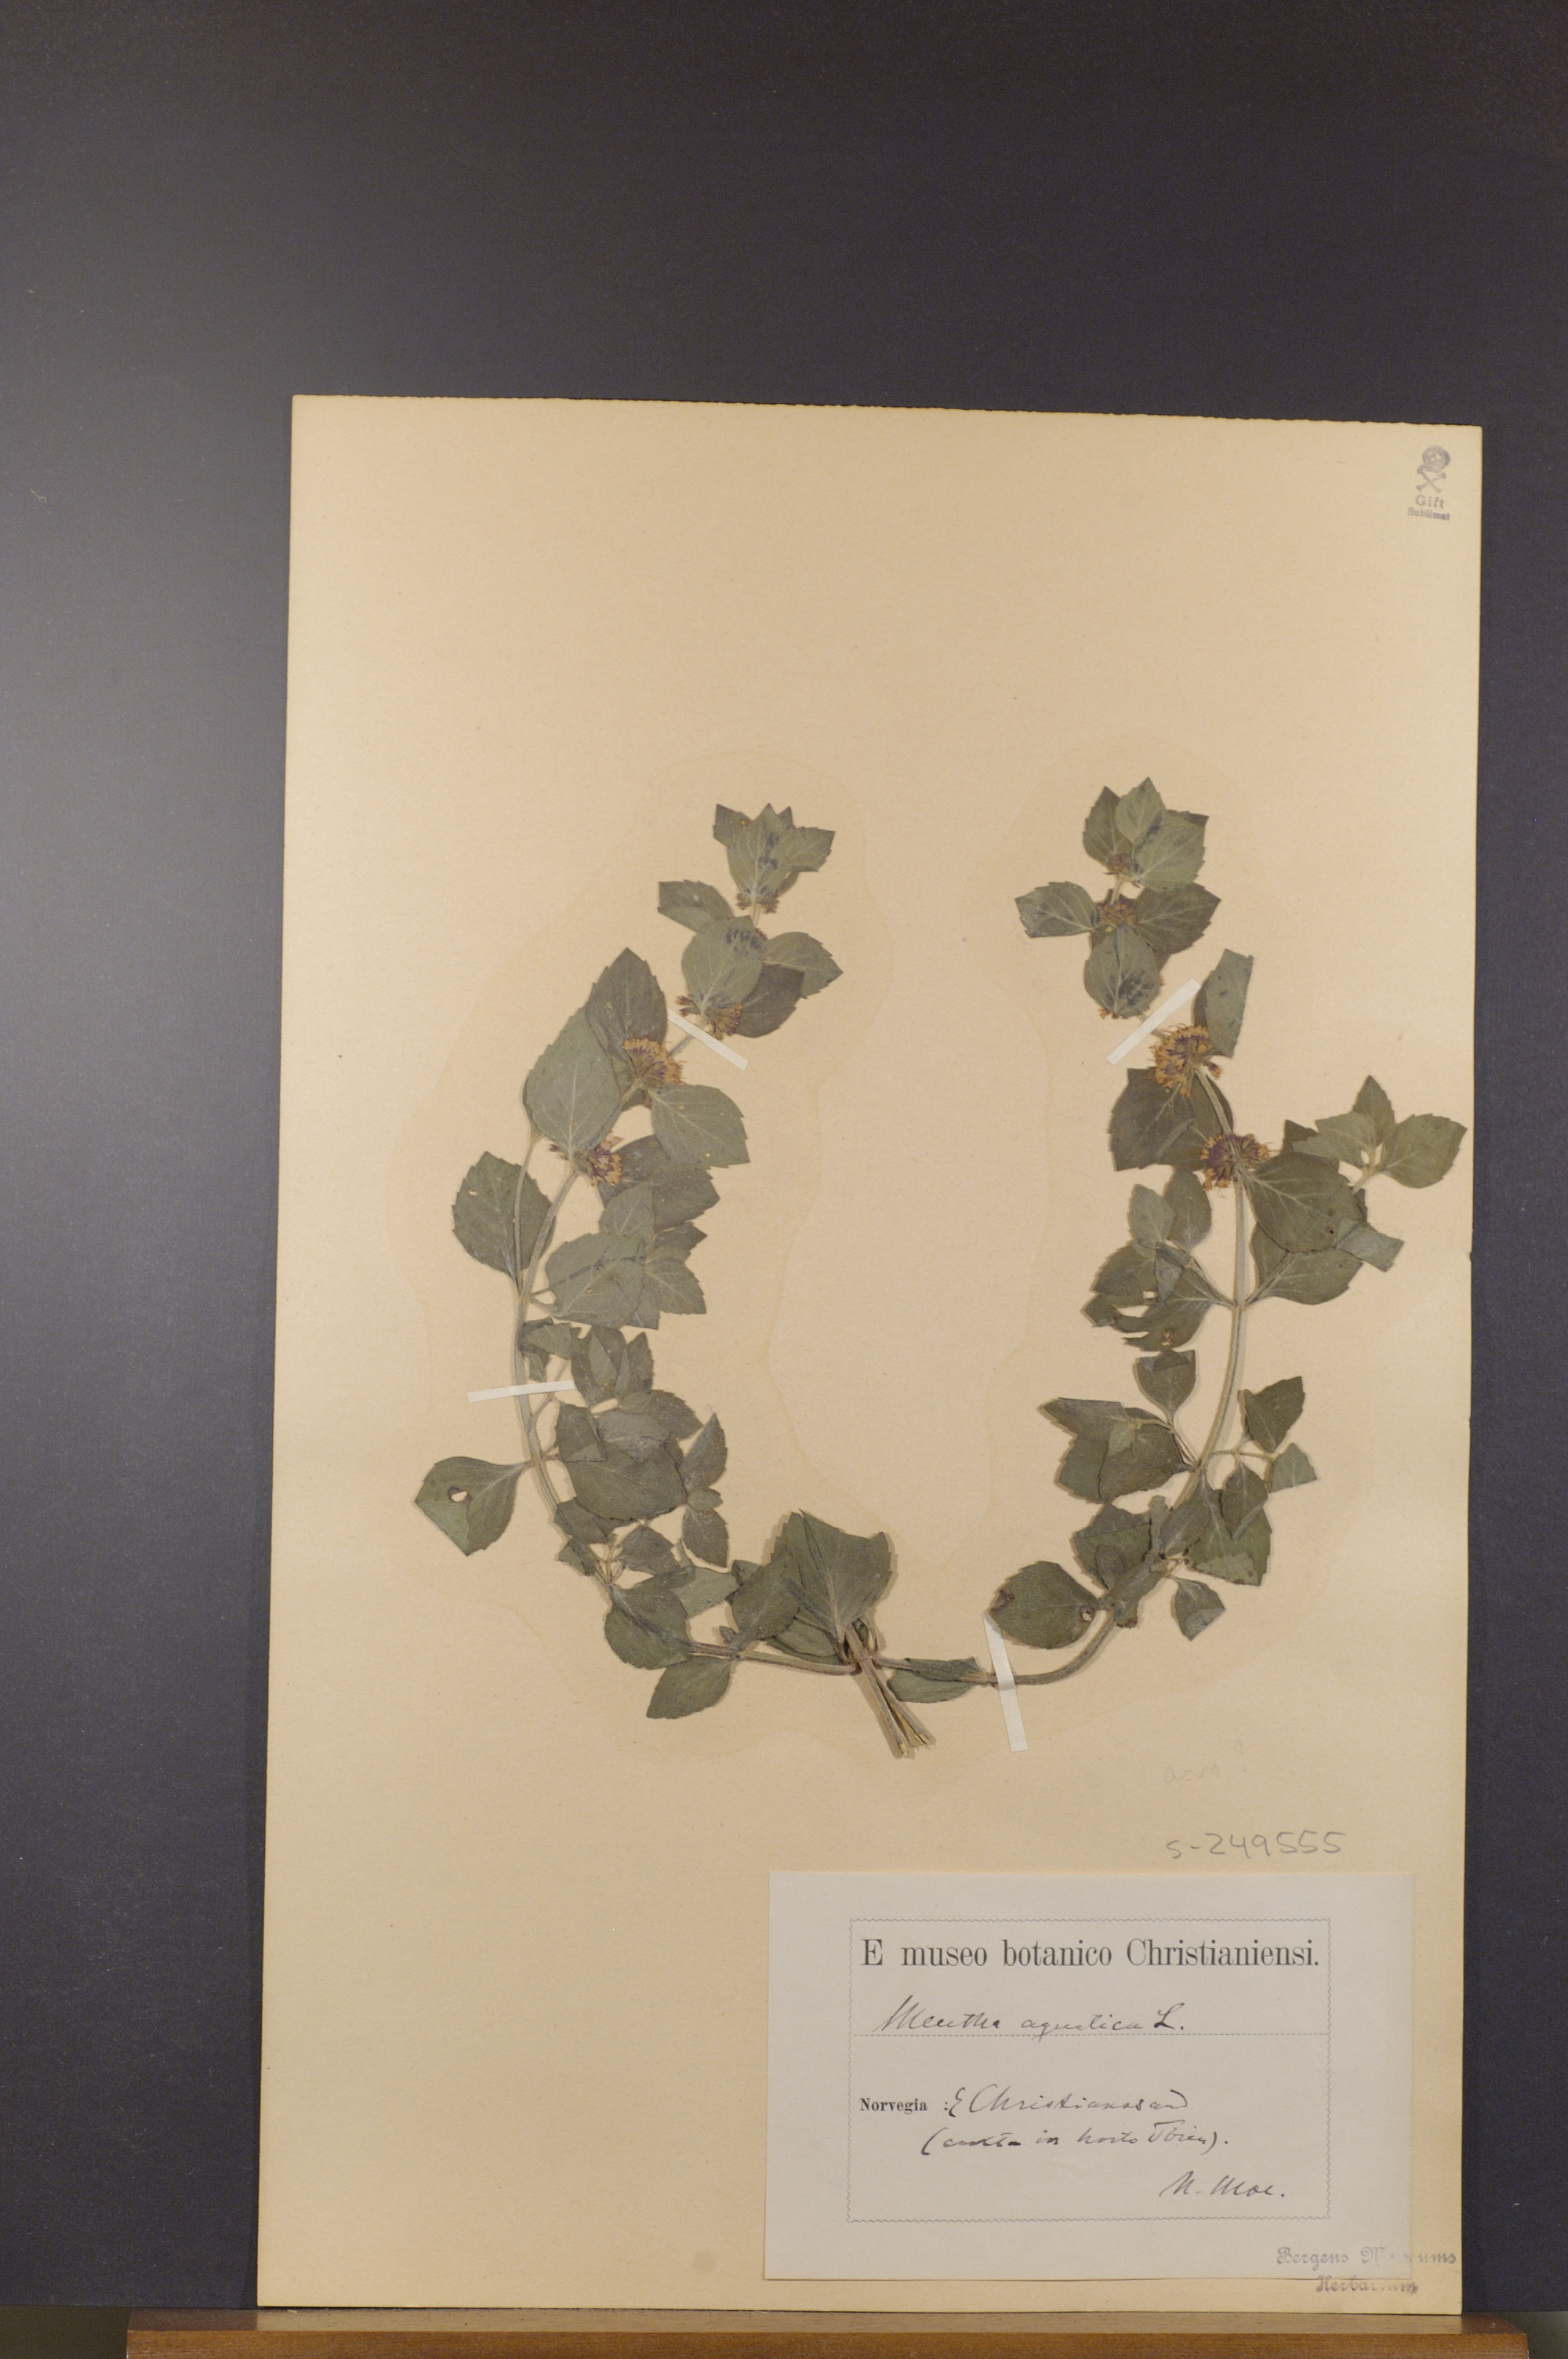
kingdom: Plantae
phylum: Tracheophyta
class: Magnoliopsida
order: Lamiales
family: Lamiaceae
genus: Mentha
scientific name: Mentha aquatica
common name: Water mint
